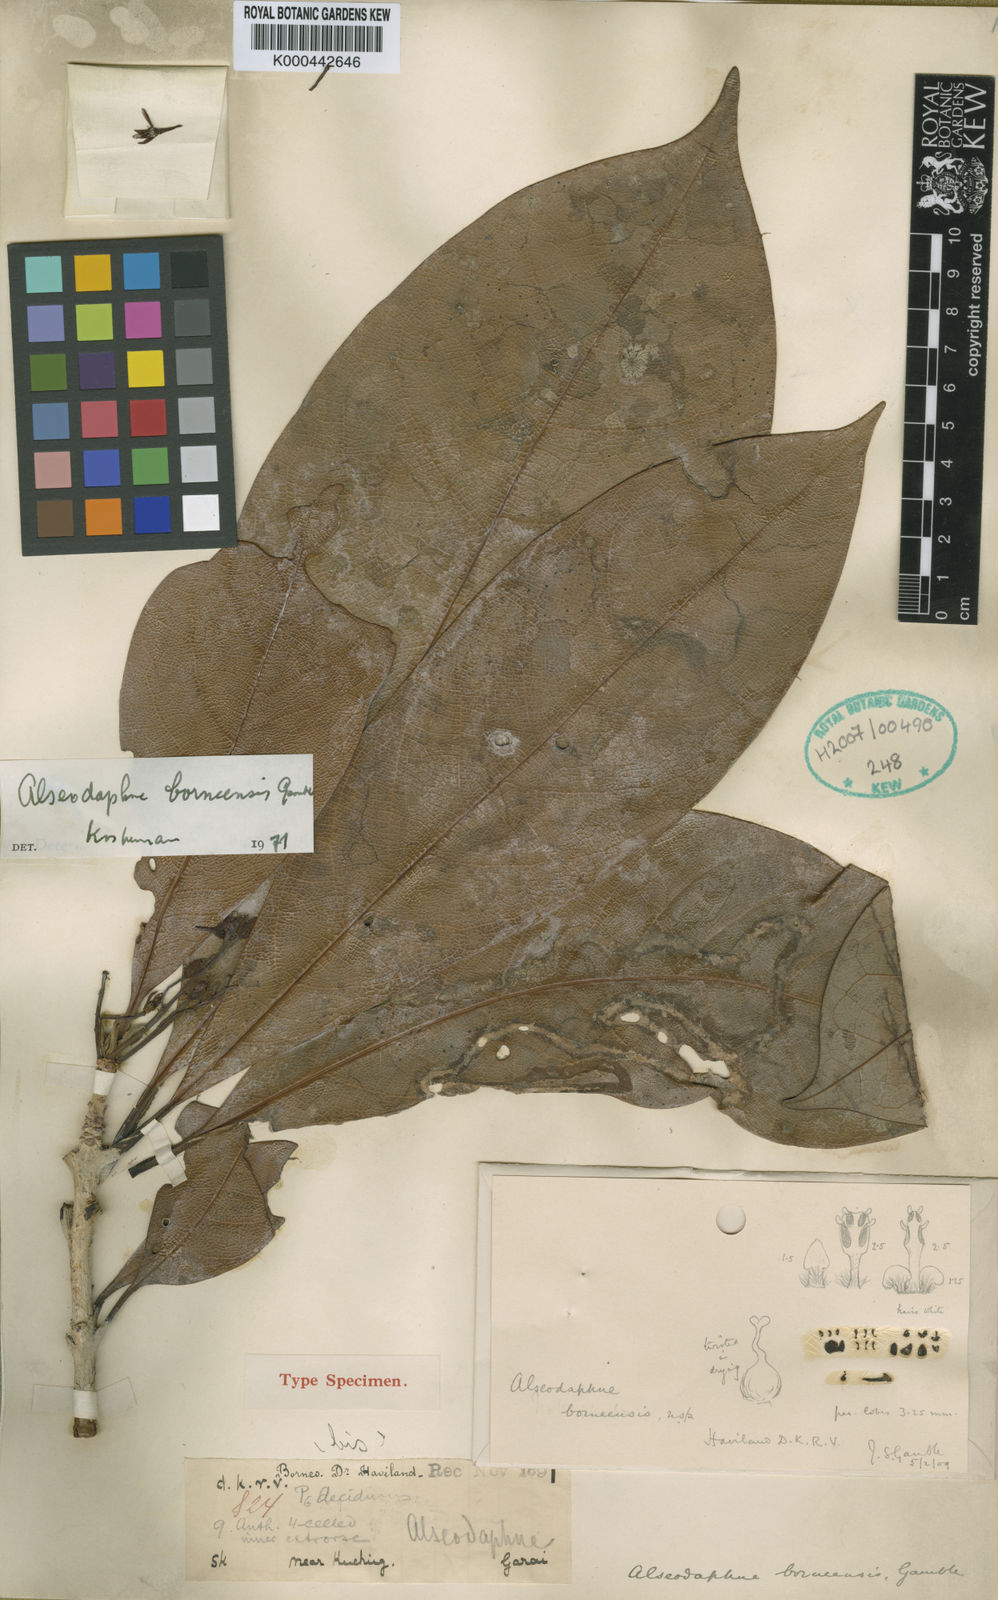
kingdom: Plantae
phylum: Tracheophyta
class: Magnoliopsida
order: Laurales
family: Lauraceae
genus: Alseodaphne
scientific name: Alseodaphne borneensis
